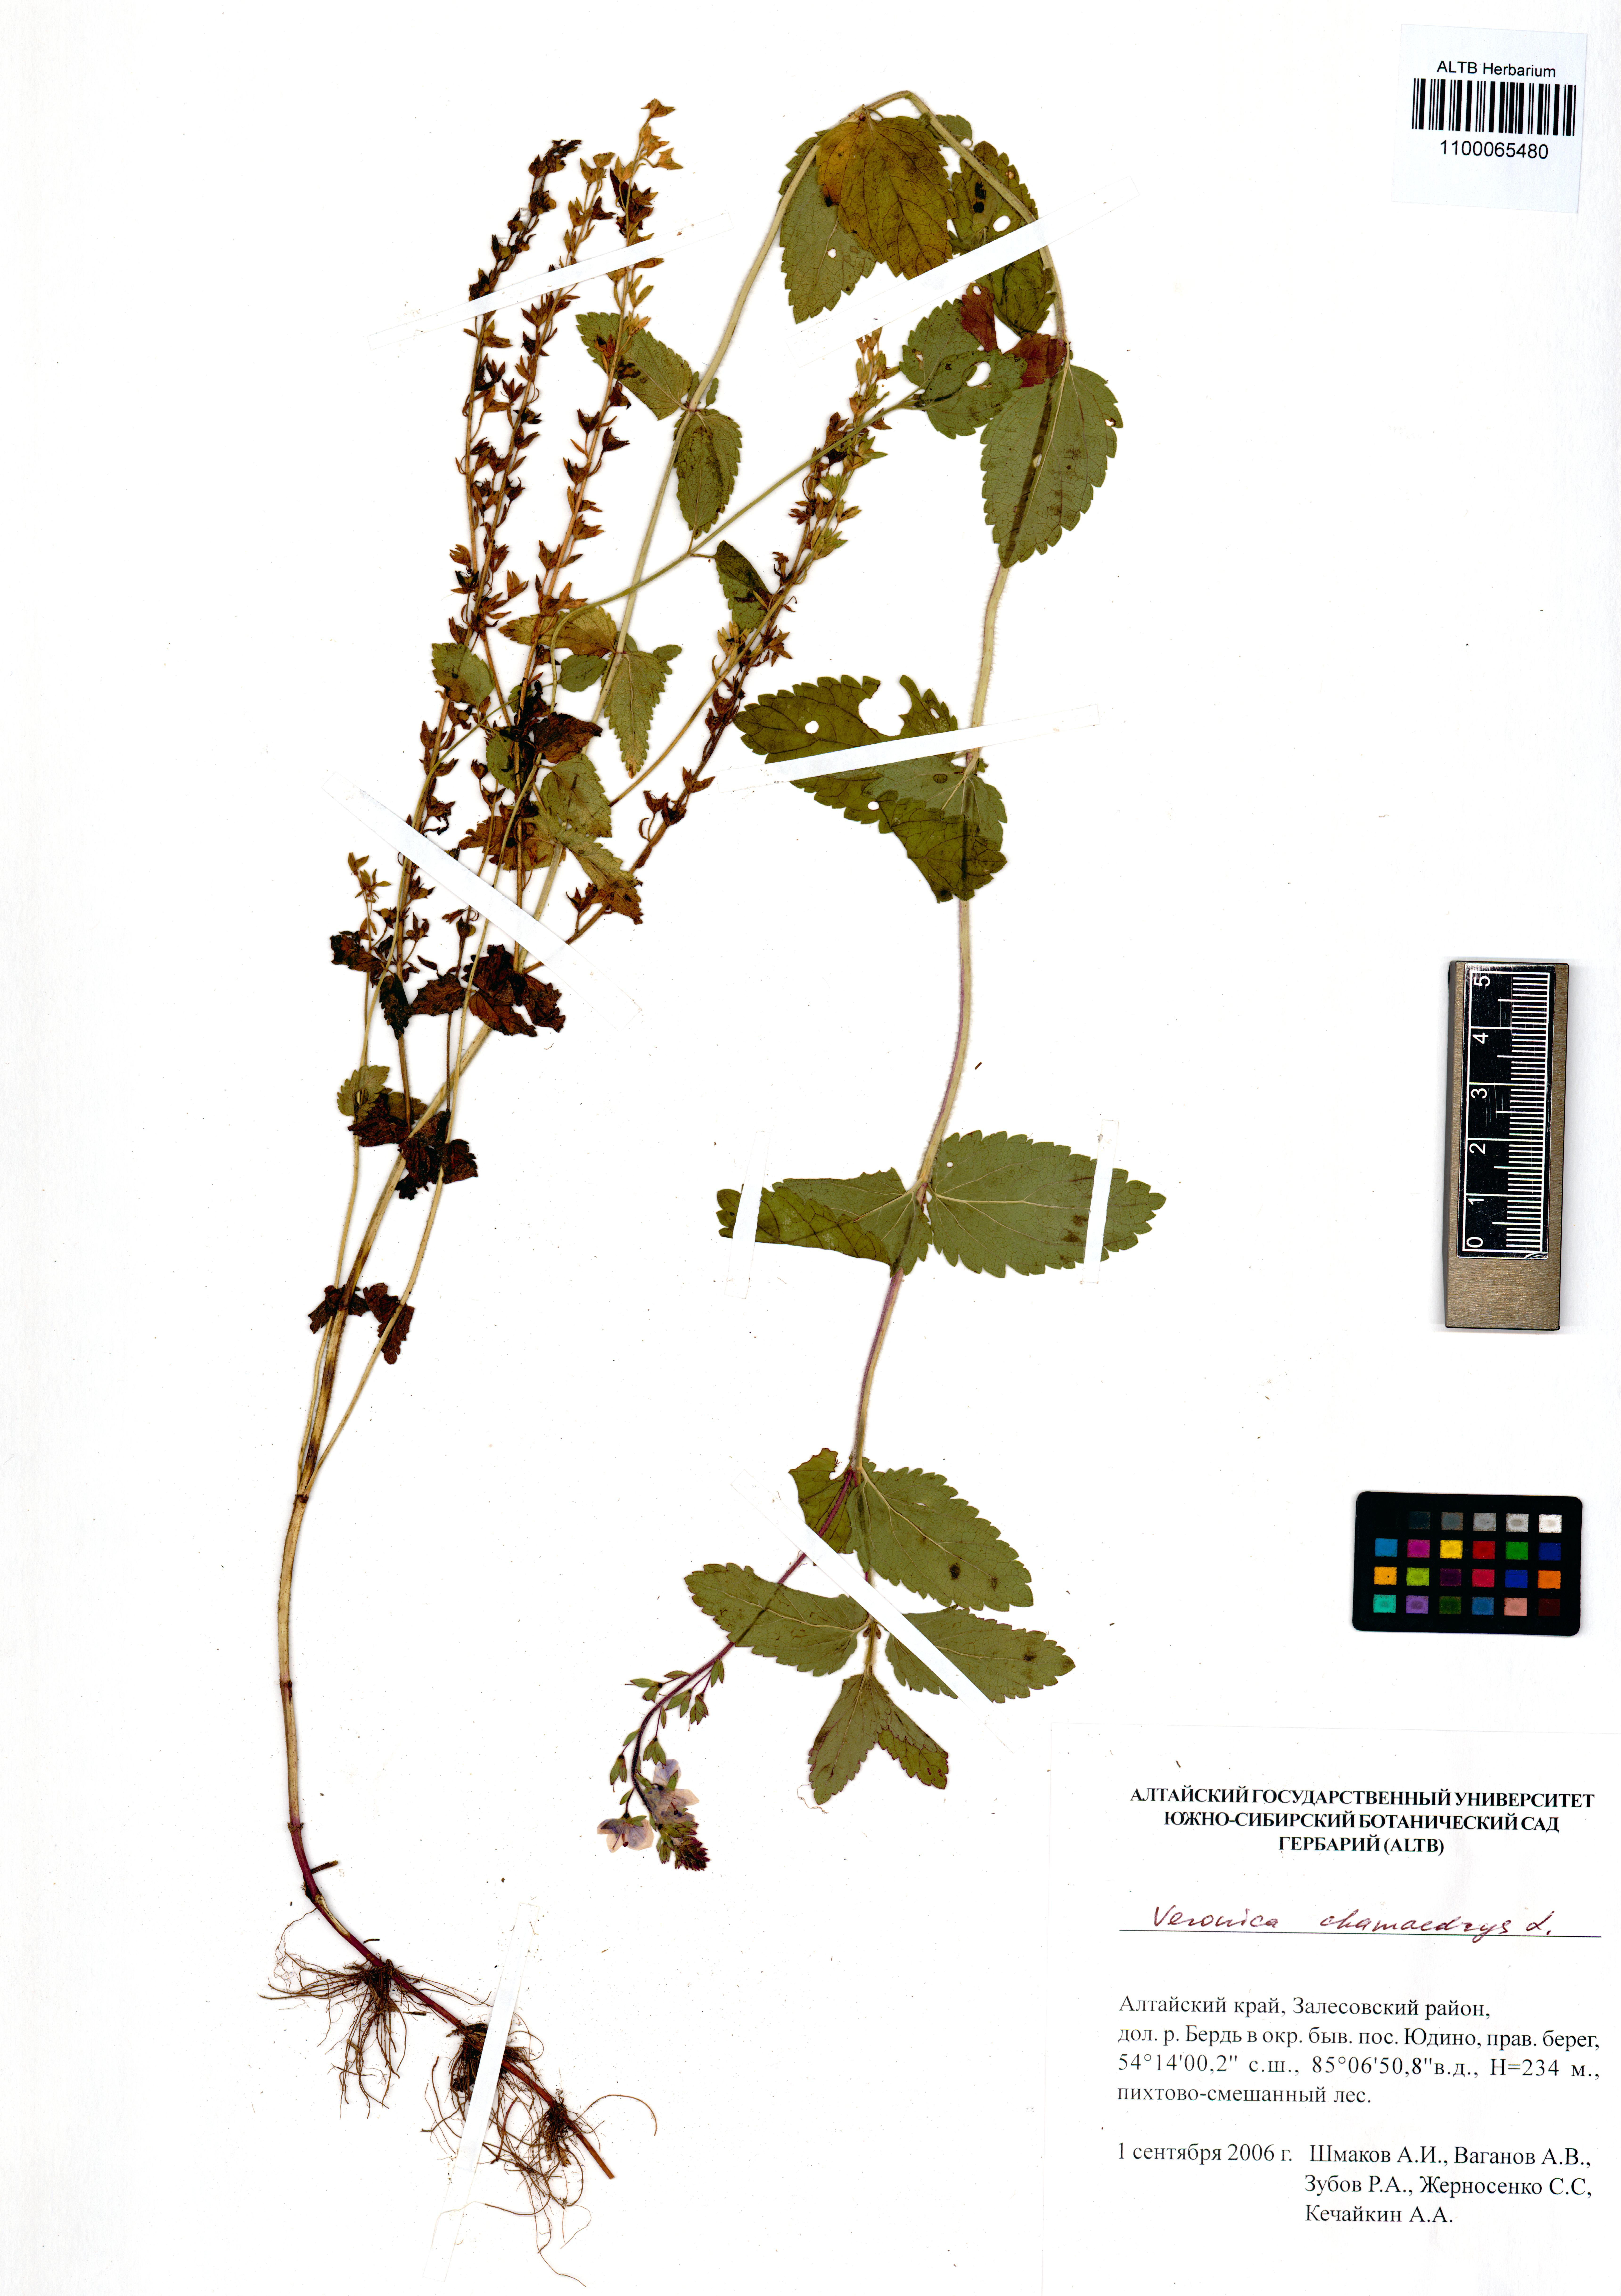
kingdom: Plantae
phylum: Tracheophyta
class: Magnoliopsida
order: Lamiales
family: Plantaginaceae
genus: Veronica
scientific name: Veronica chamaedrys
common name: Germander speedwell
